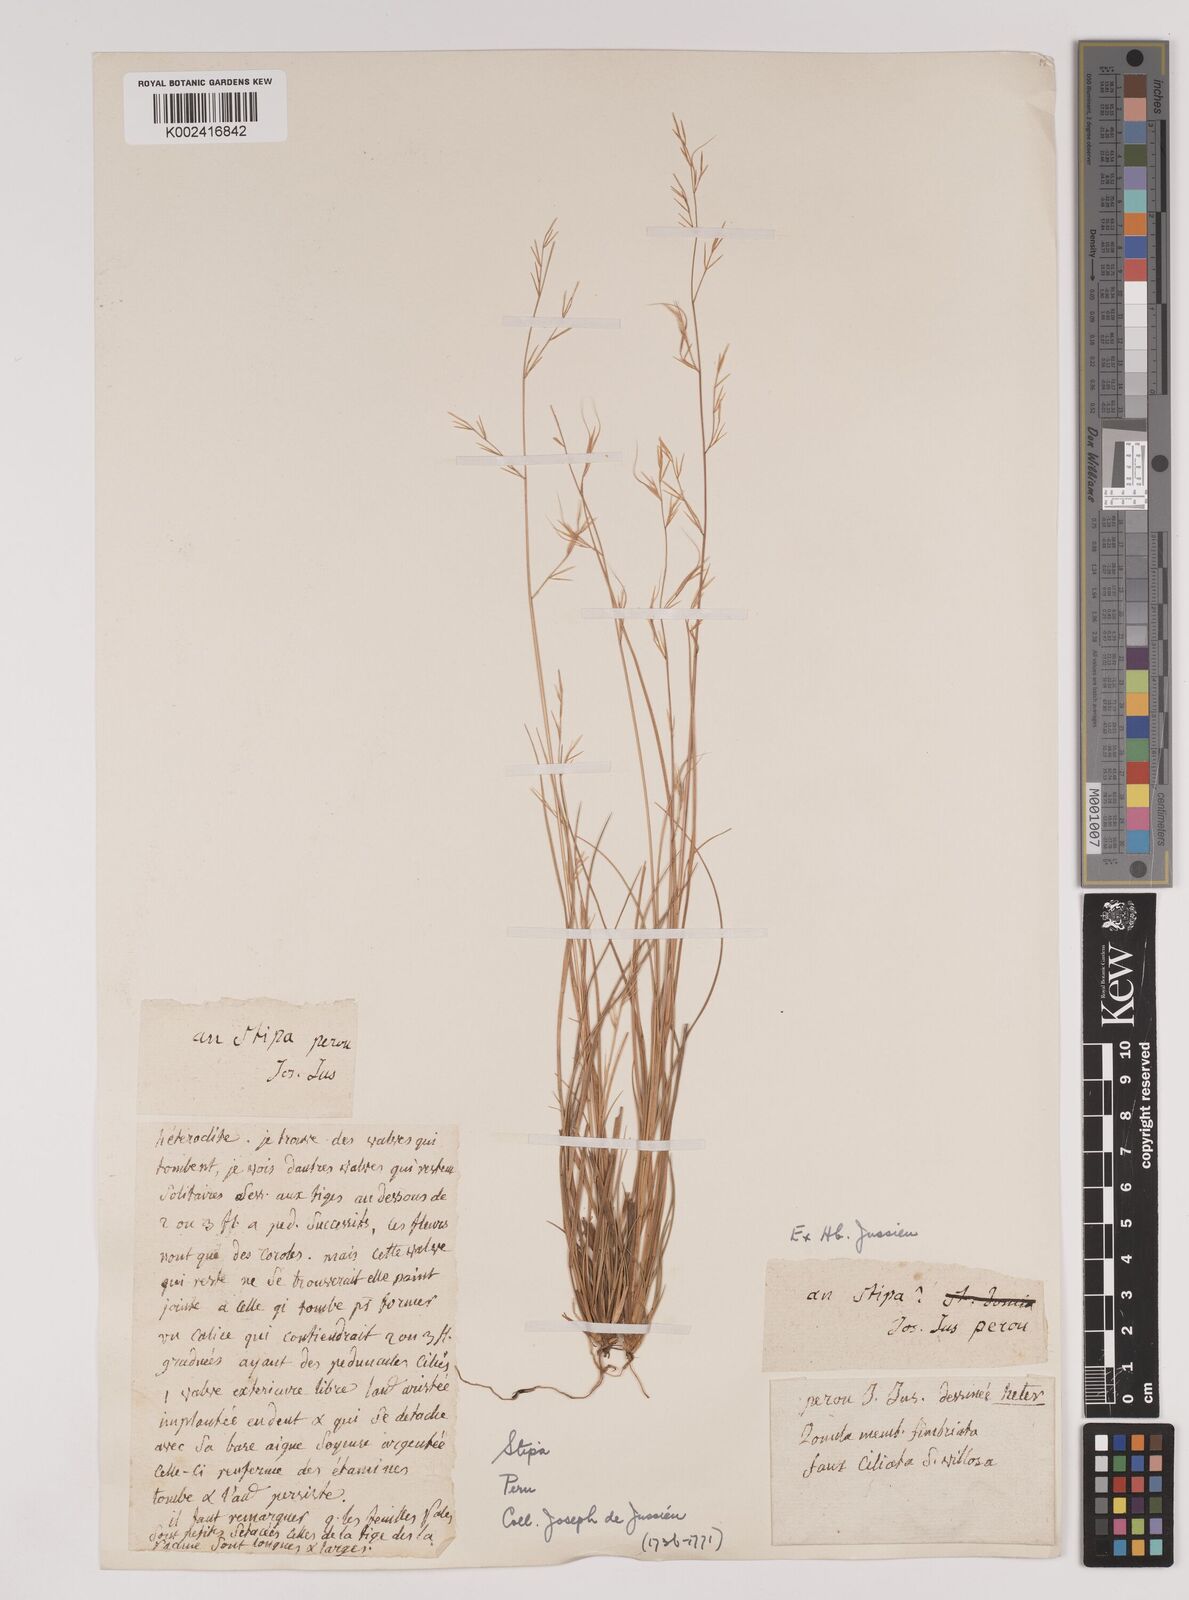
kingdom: Plantae
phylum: Tracheophyta
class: Liliopsida
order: Poales
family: Poaceae
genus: Stipa
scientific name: Stipa
